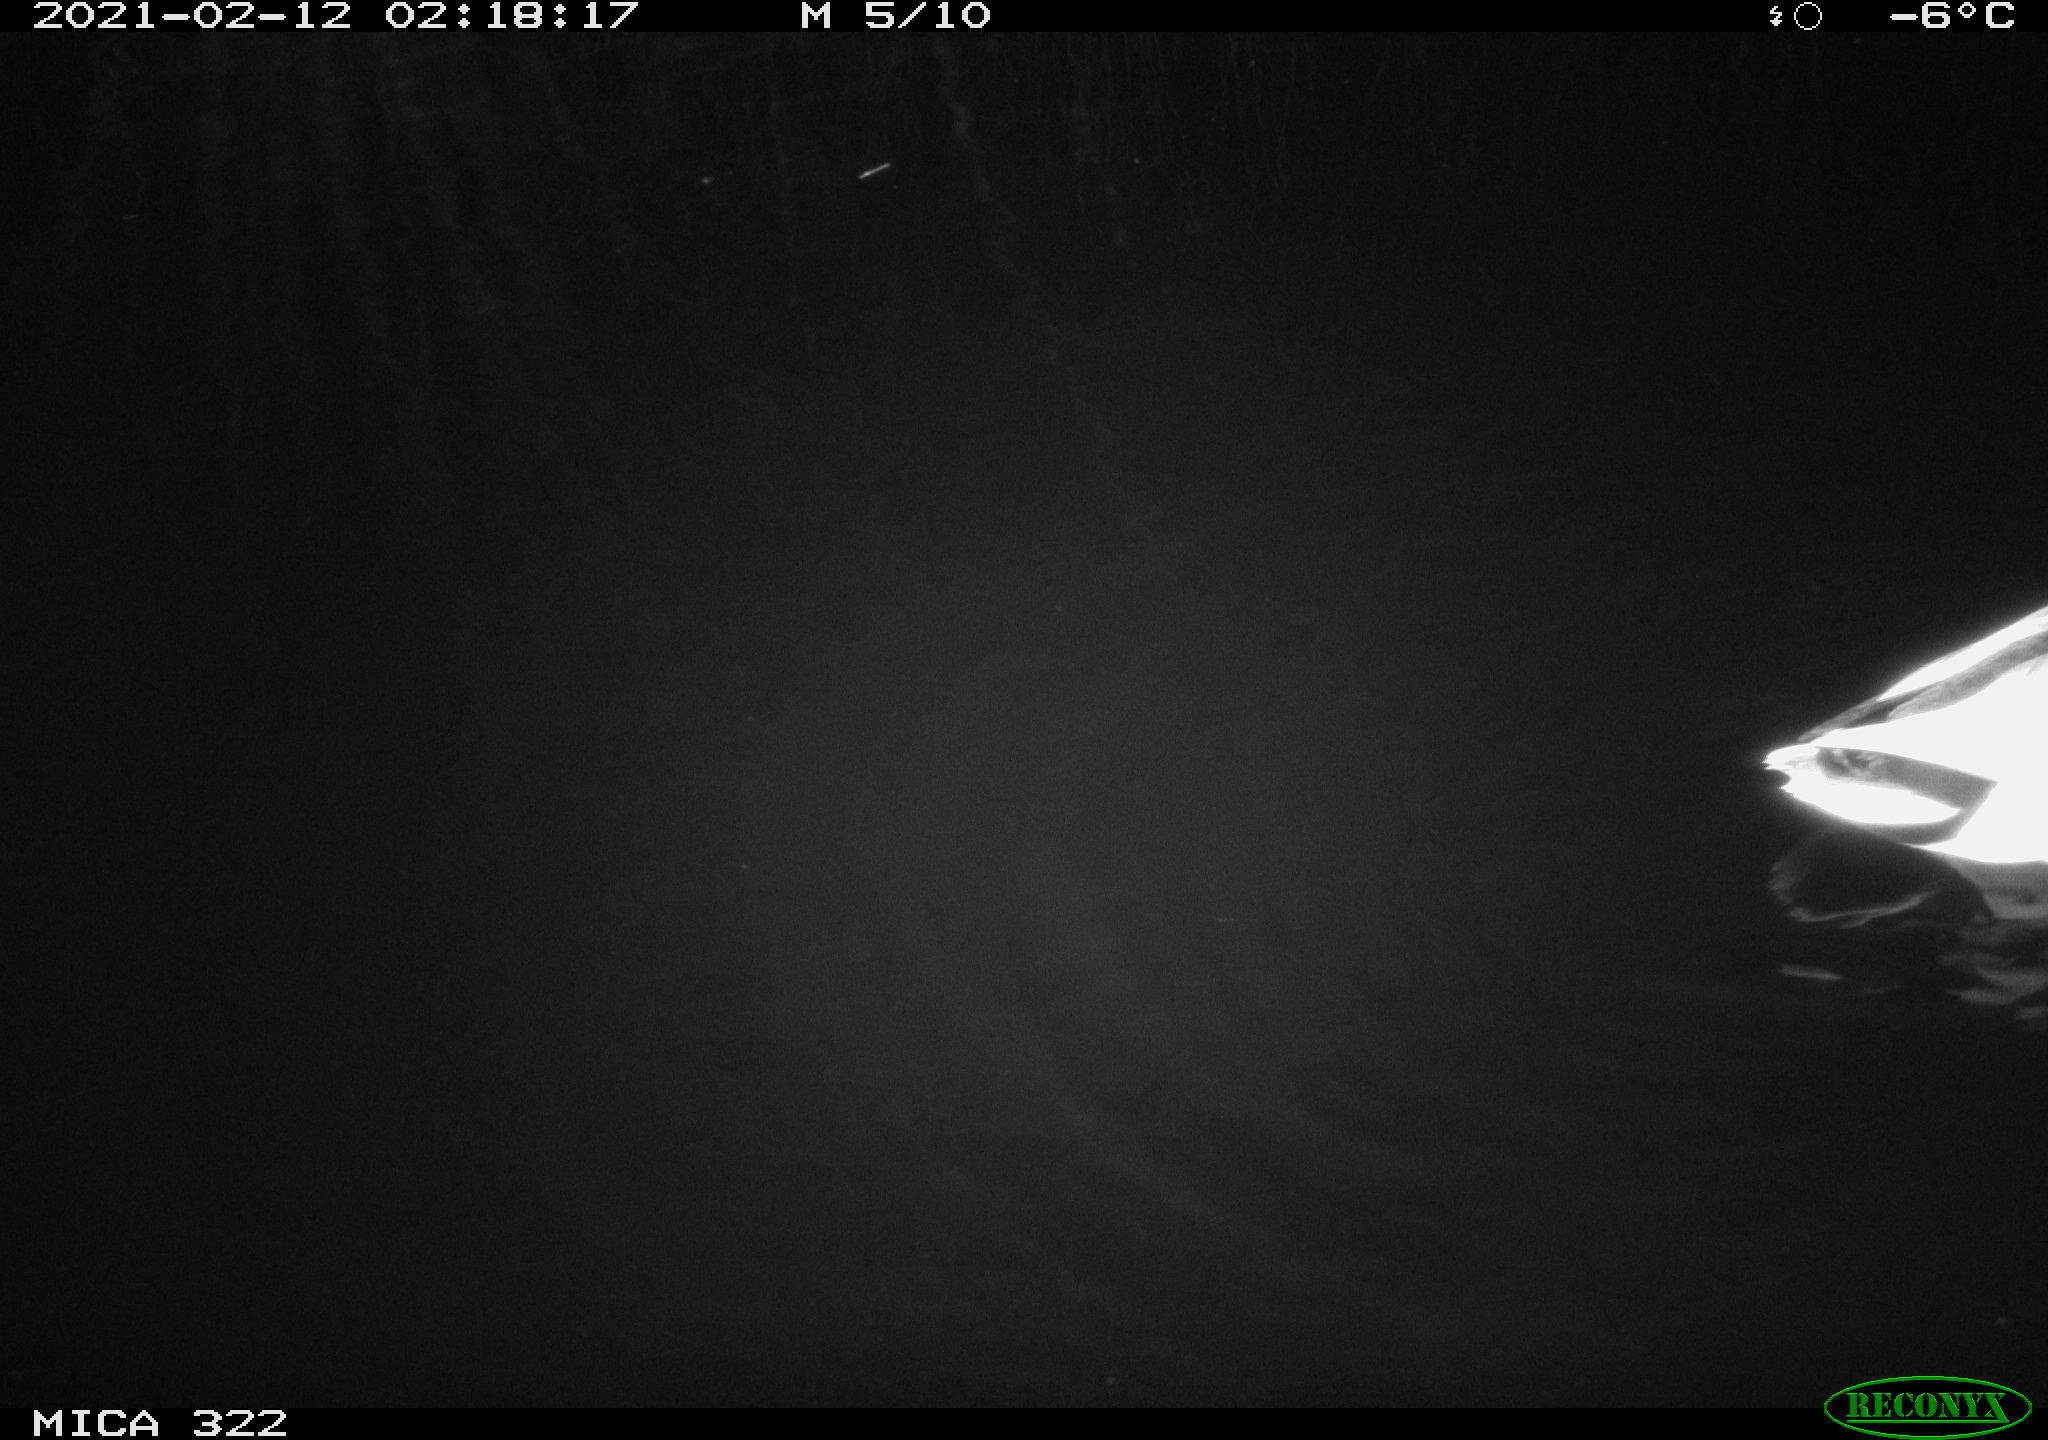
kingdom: Animalia
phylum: Chordata
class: Aves
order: Anseriformes
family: Anatidae
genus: Anas
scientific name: Anas platyrhynchos
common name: Mallard
